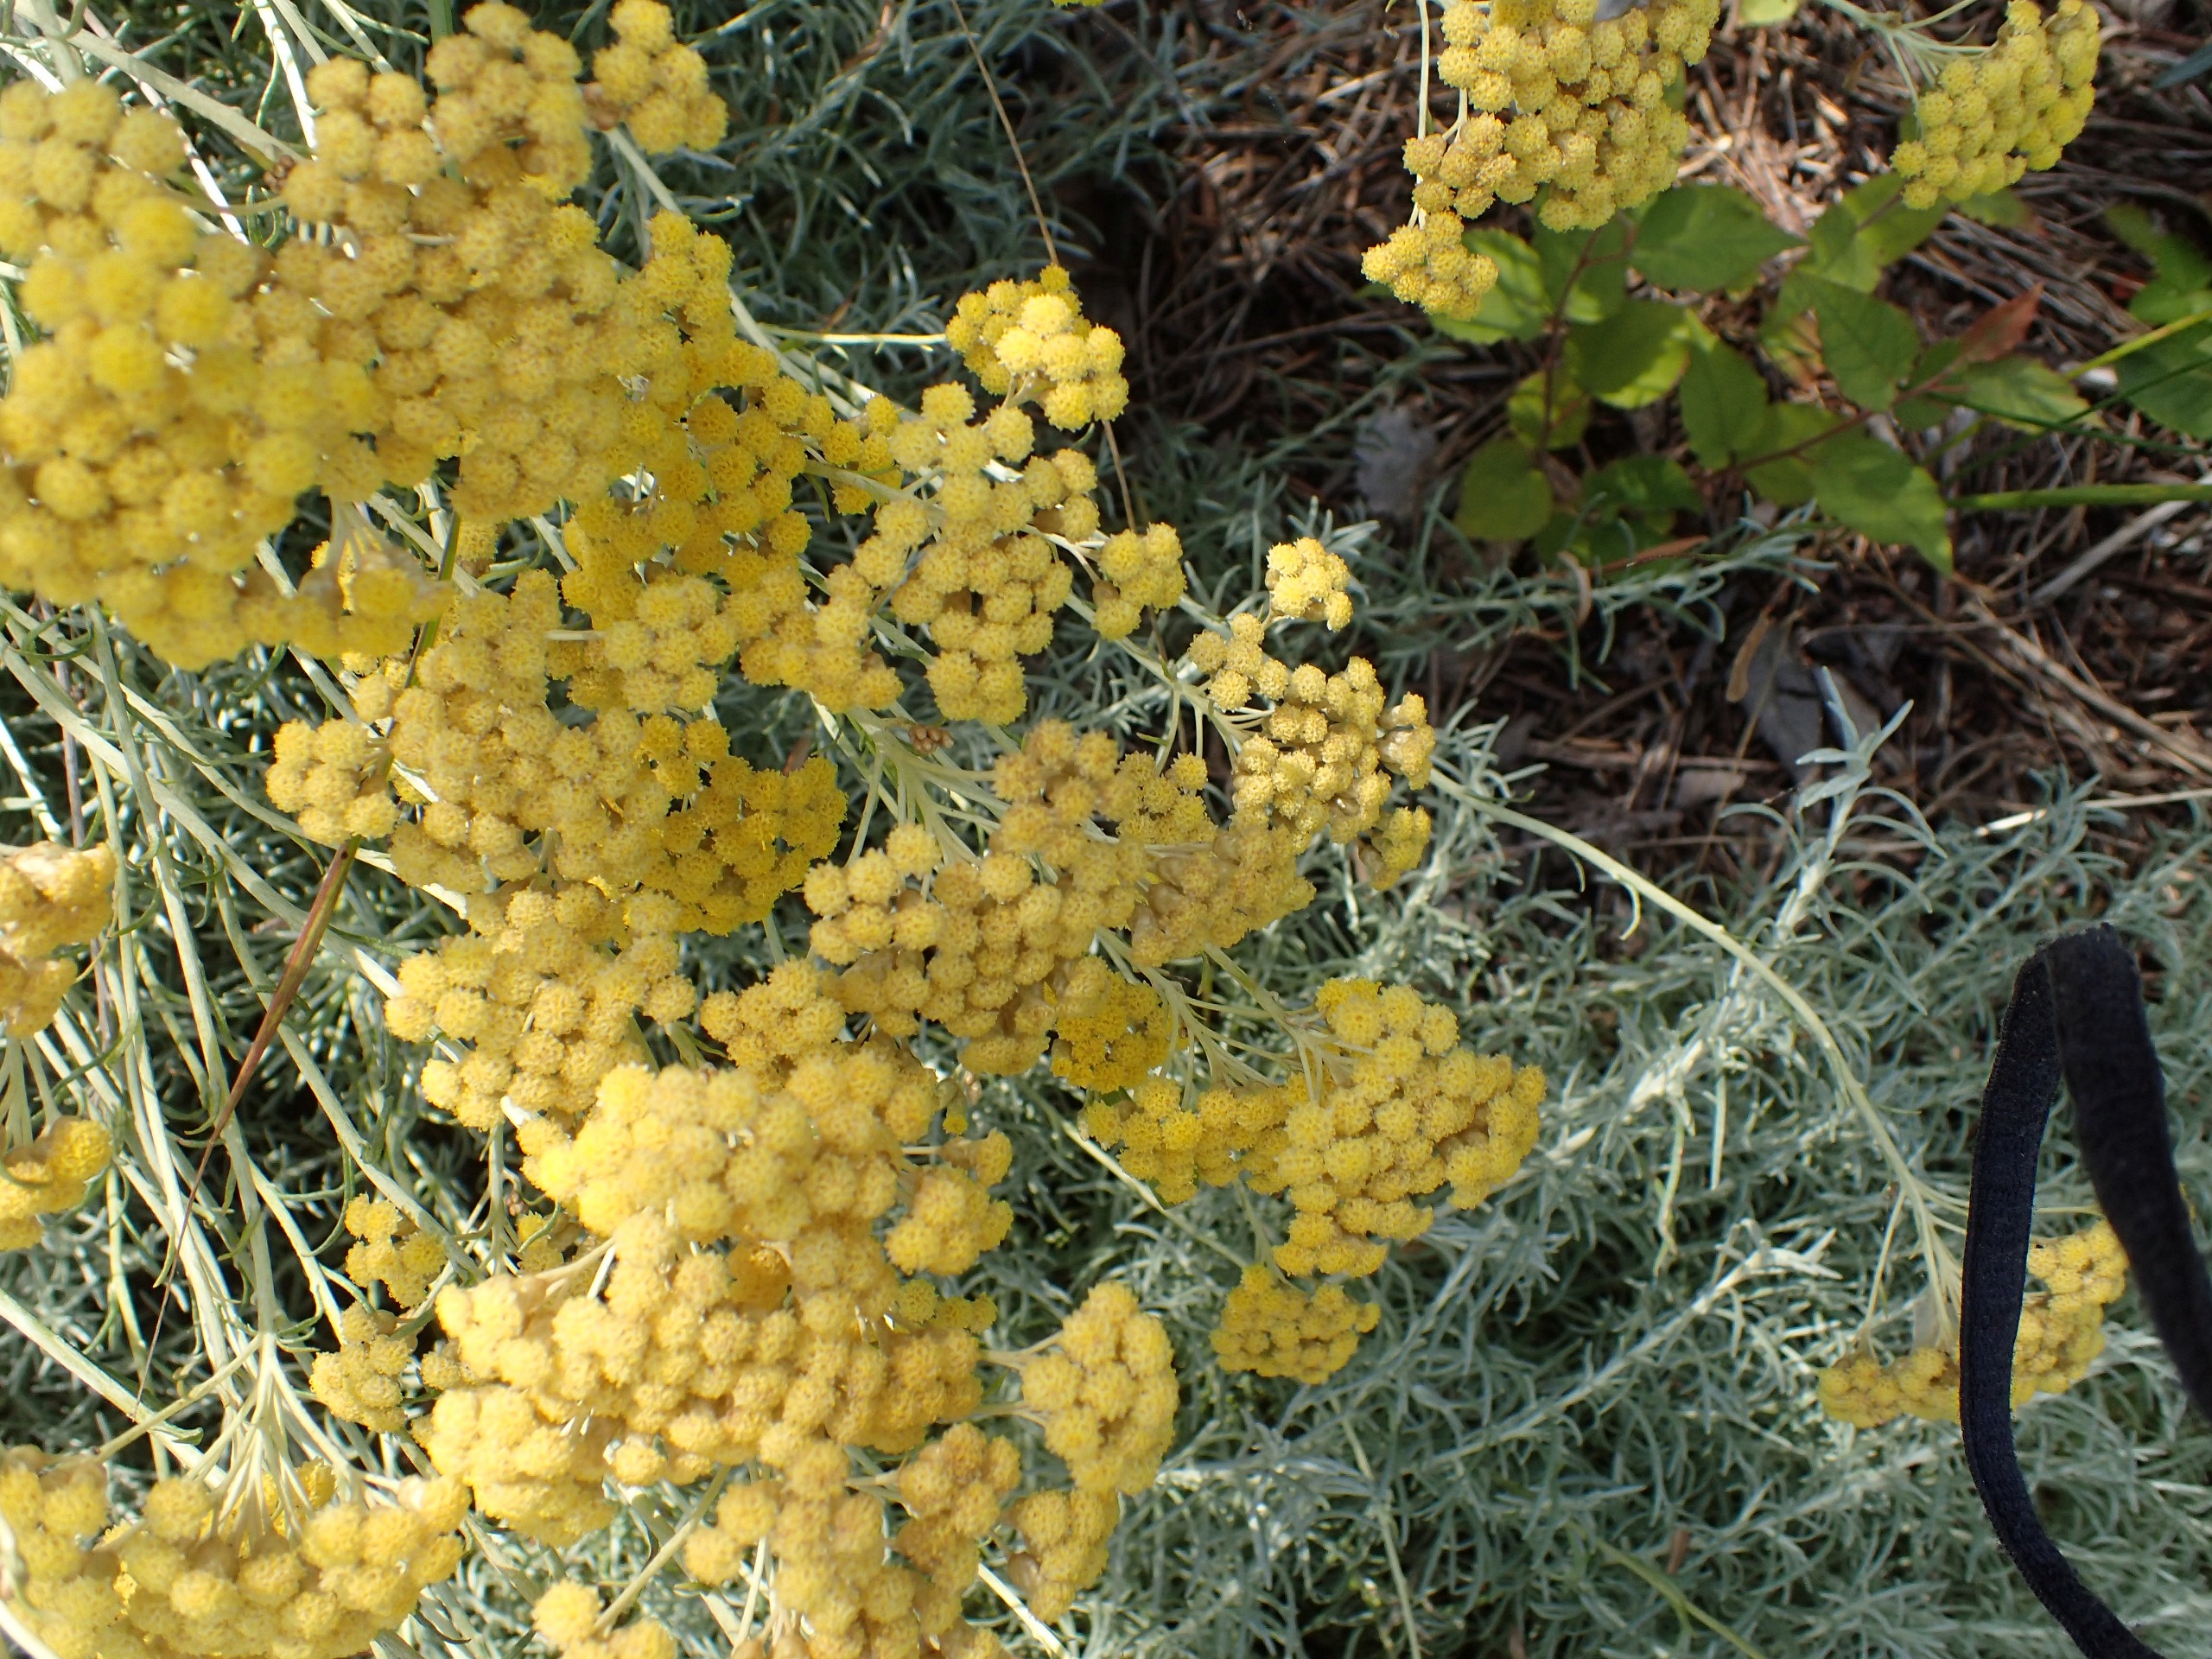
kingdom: Plantae
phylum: Tracheophyta
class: Magnoliopsida
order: Asterales
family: Asteraceae
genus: Helichrysum
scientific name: Helichrysum italicum
